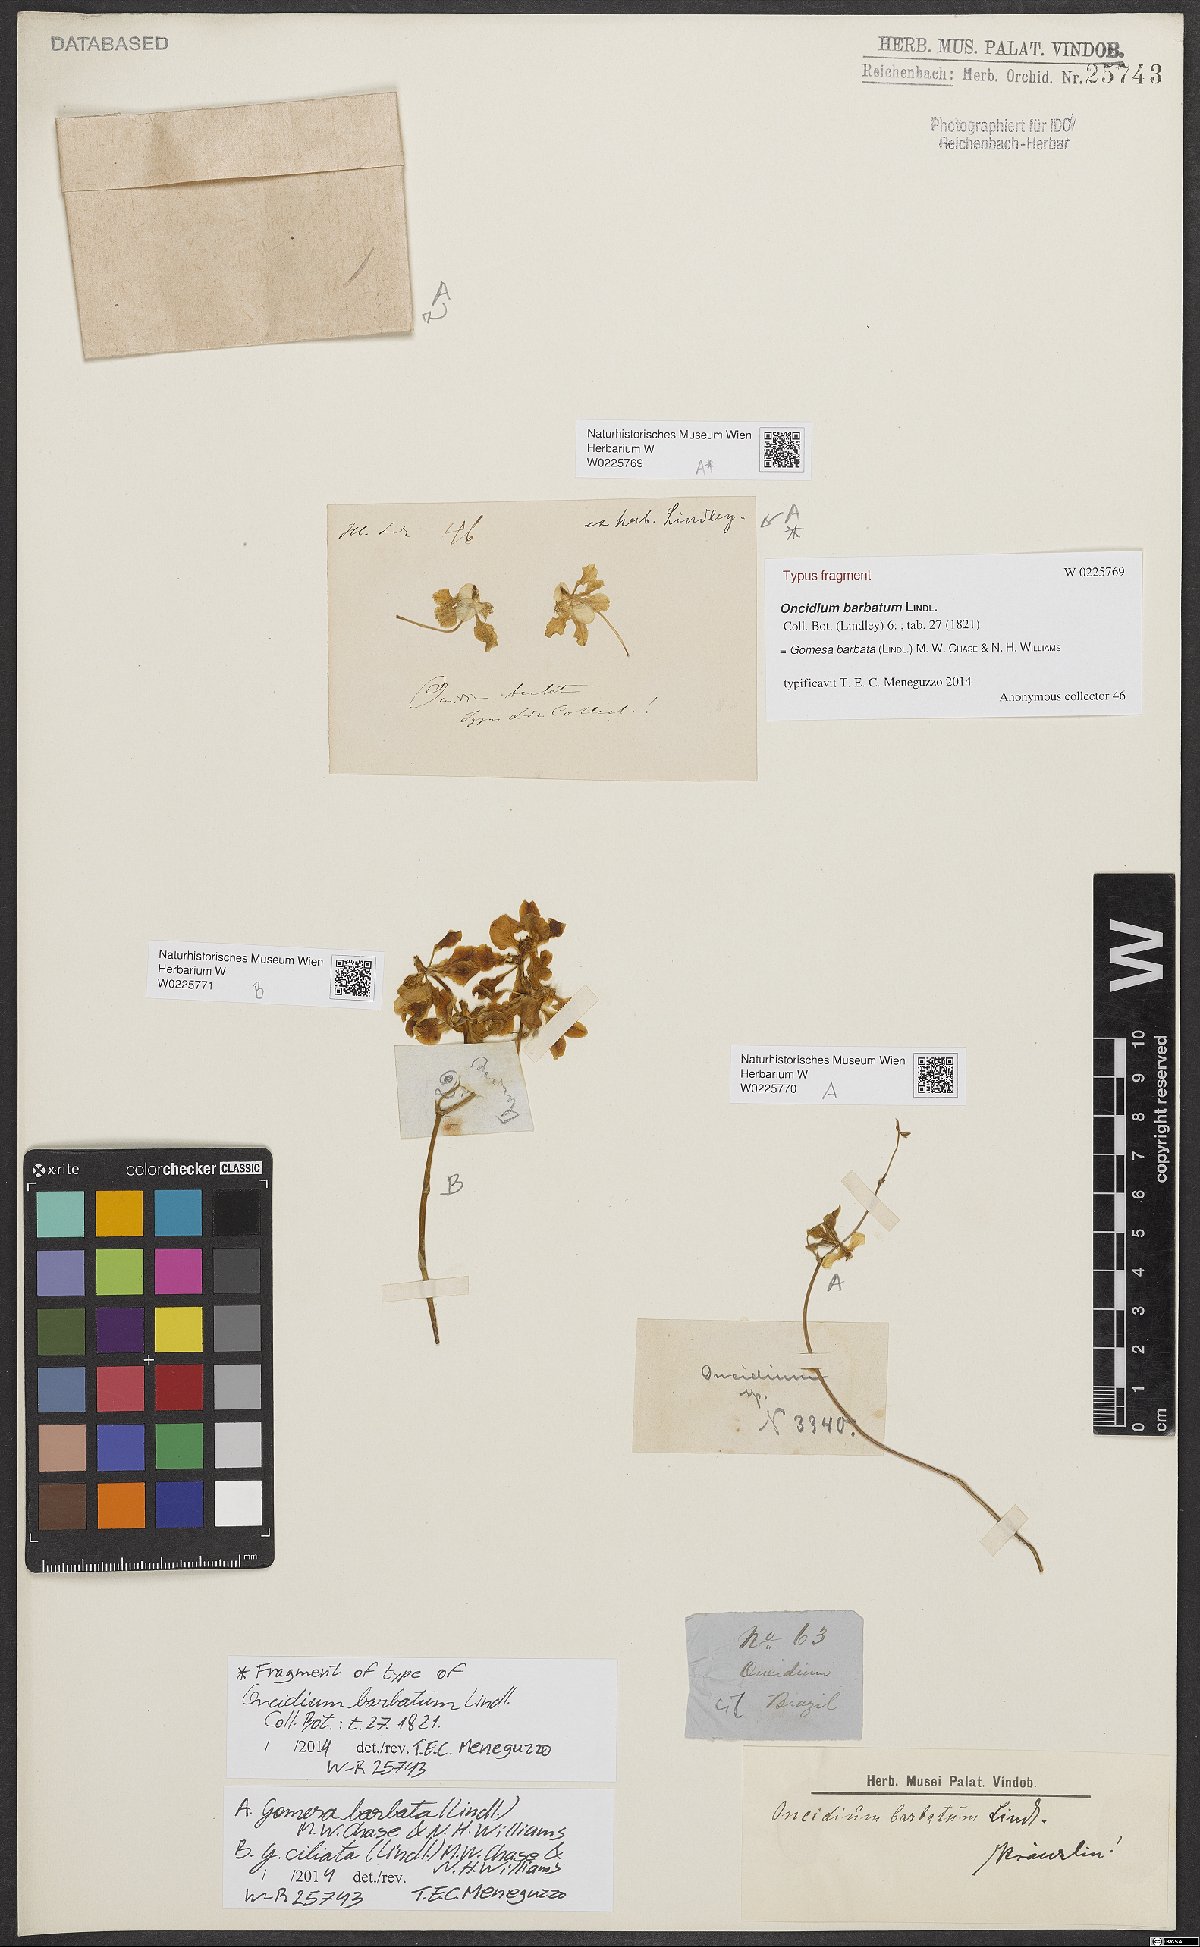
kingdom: Plantae
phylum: Tracheophyta
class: Liliopsida
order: Asparagales
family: Orchidaceae
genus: Gomesa
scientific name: Gomesa ciliata
